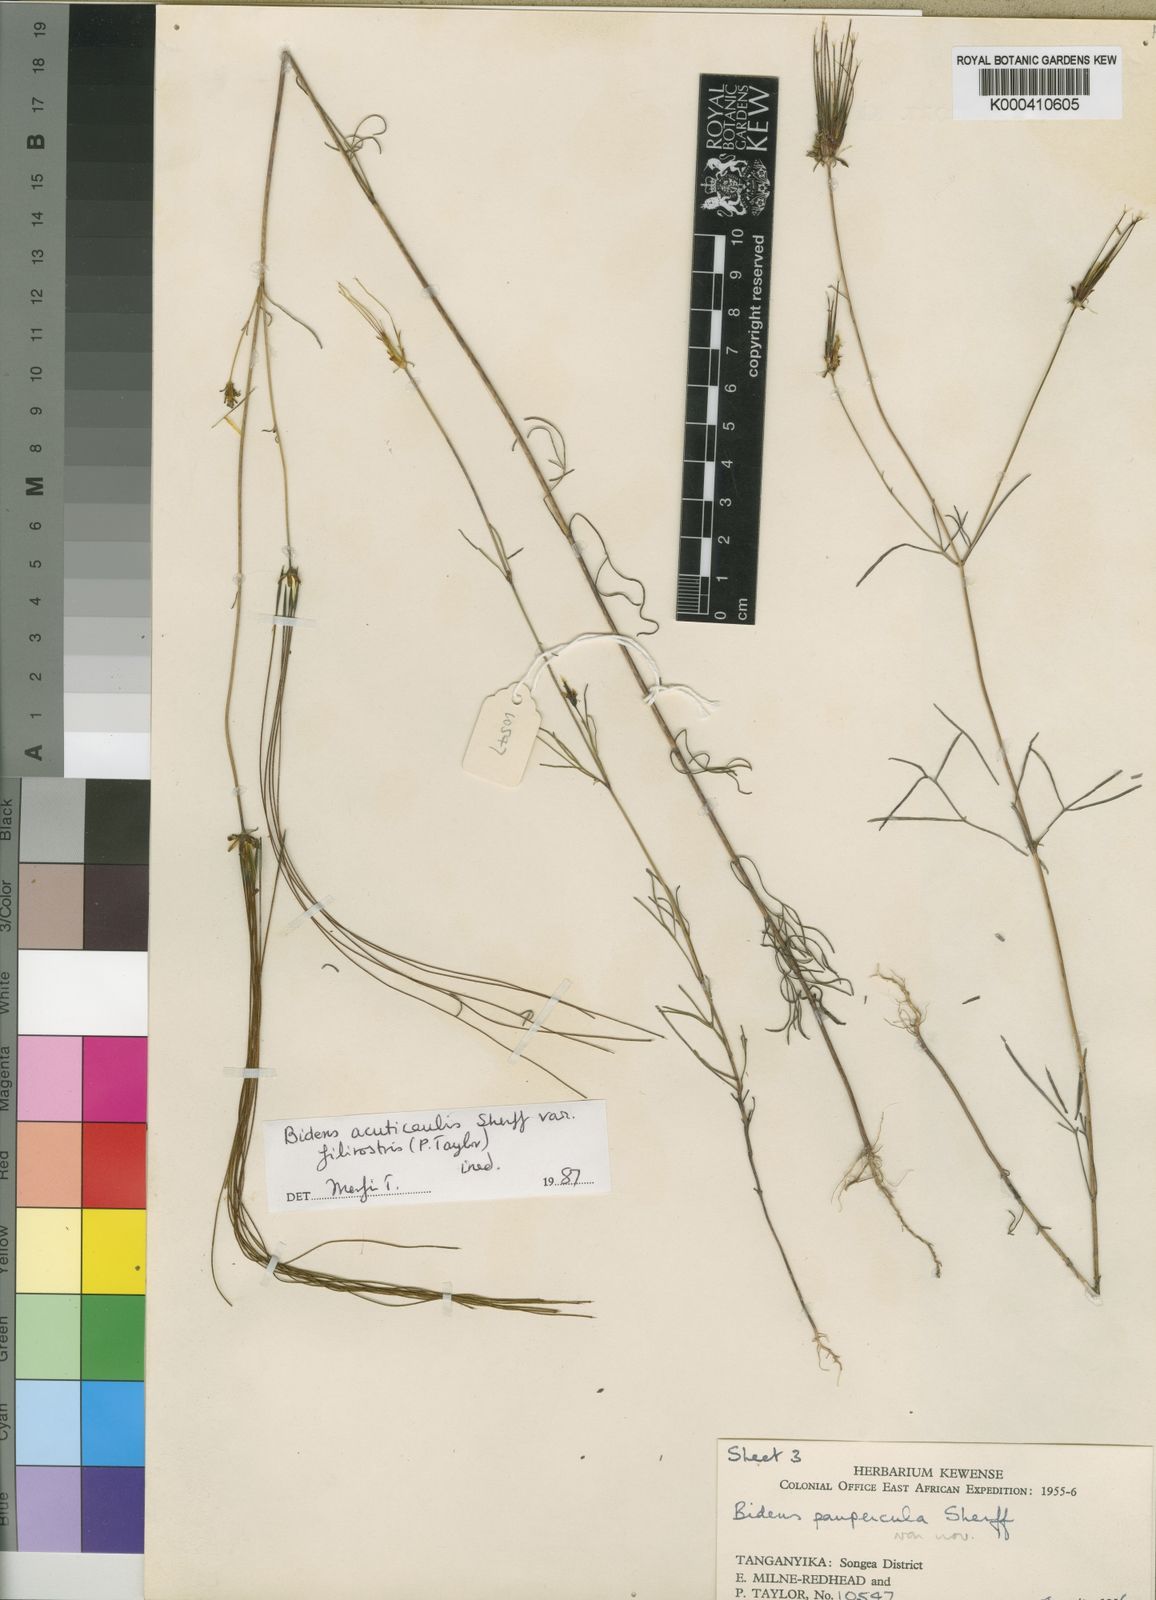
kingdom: Plantae
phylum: Tracheophyta
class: Magnoliopsida
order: Asterales
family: Asteraceae
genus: Bidens
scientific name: Bidens acuticaulis
